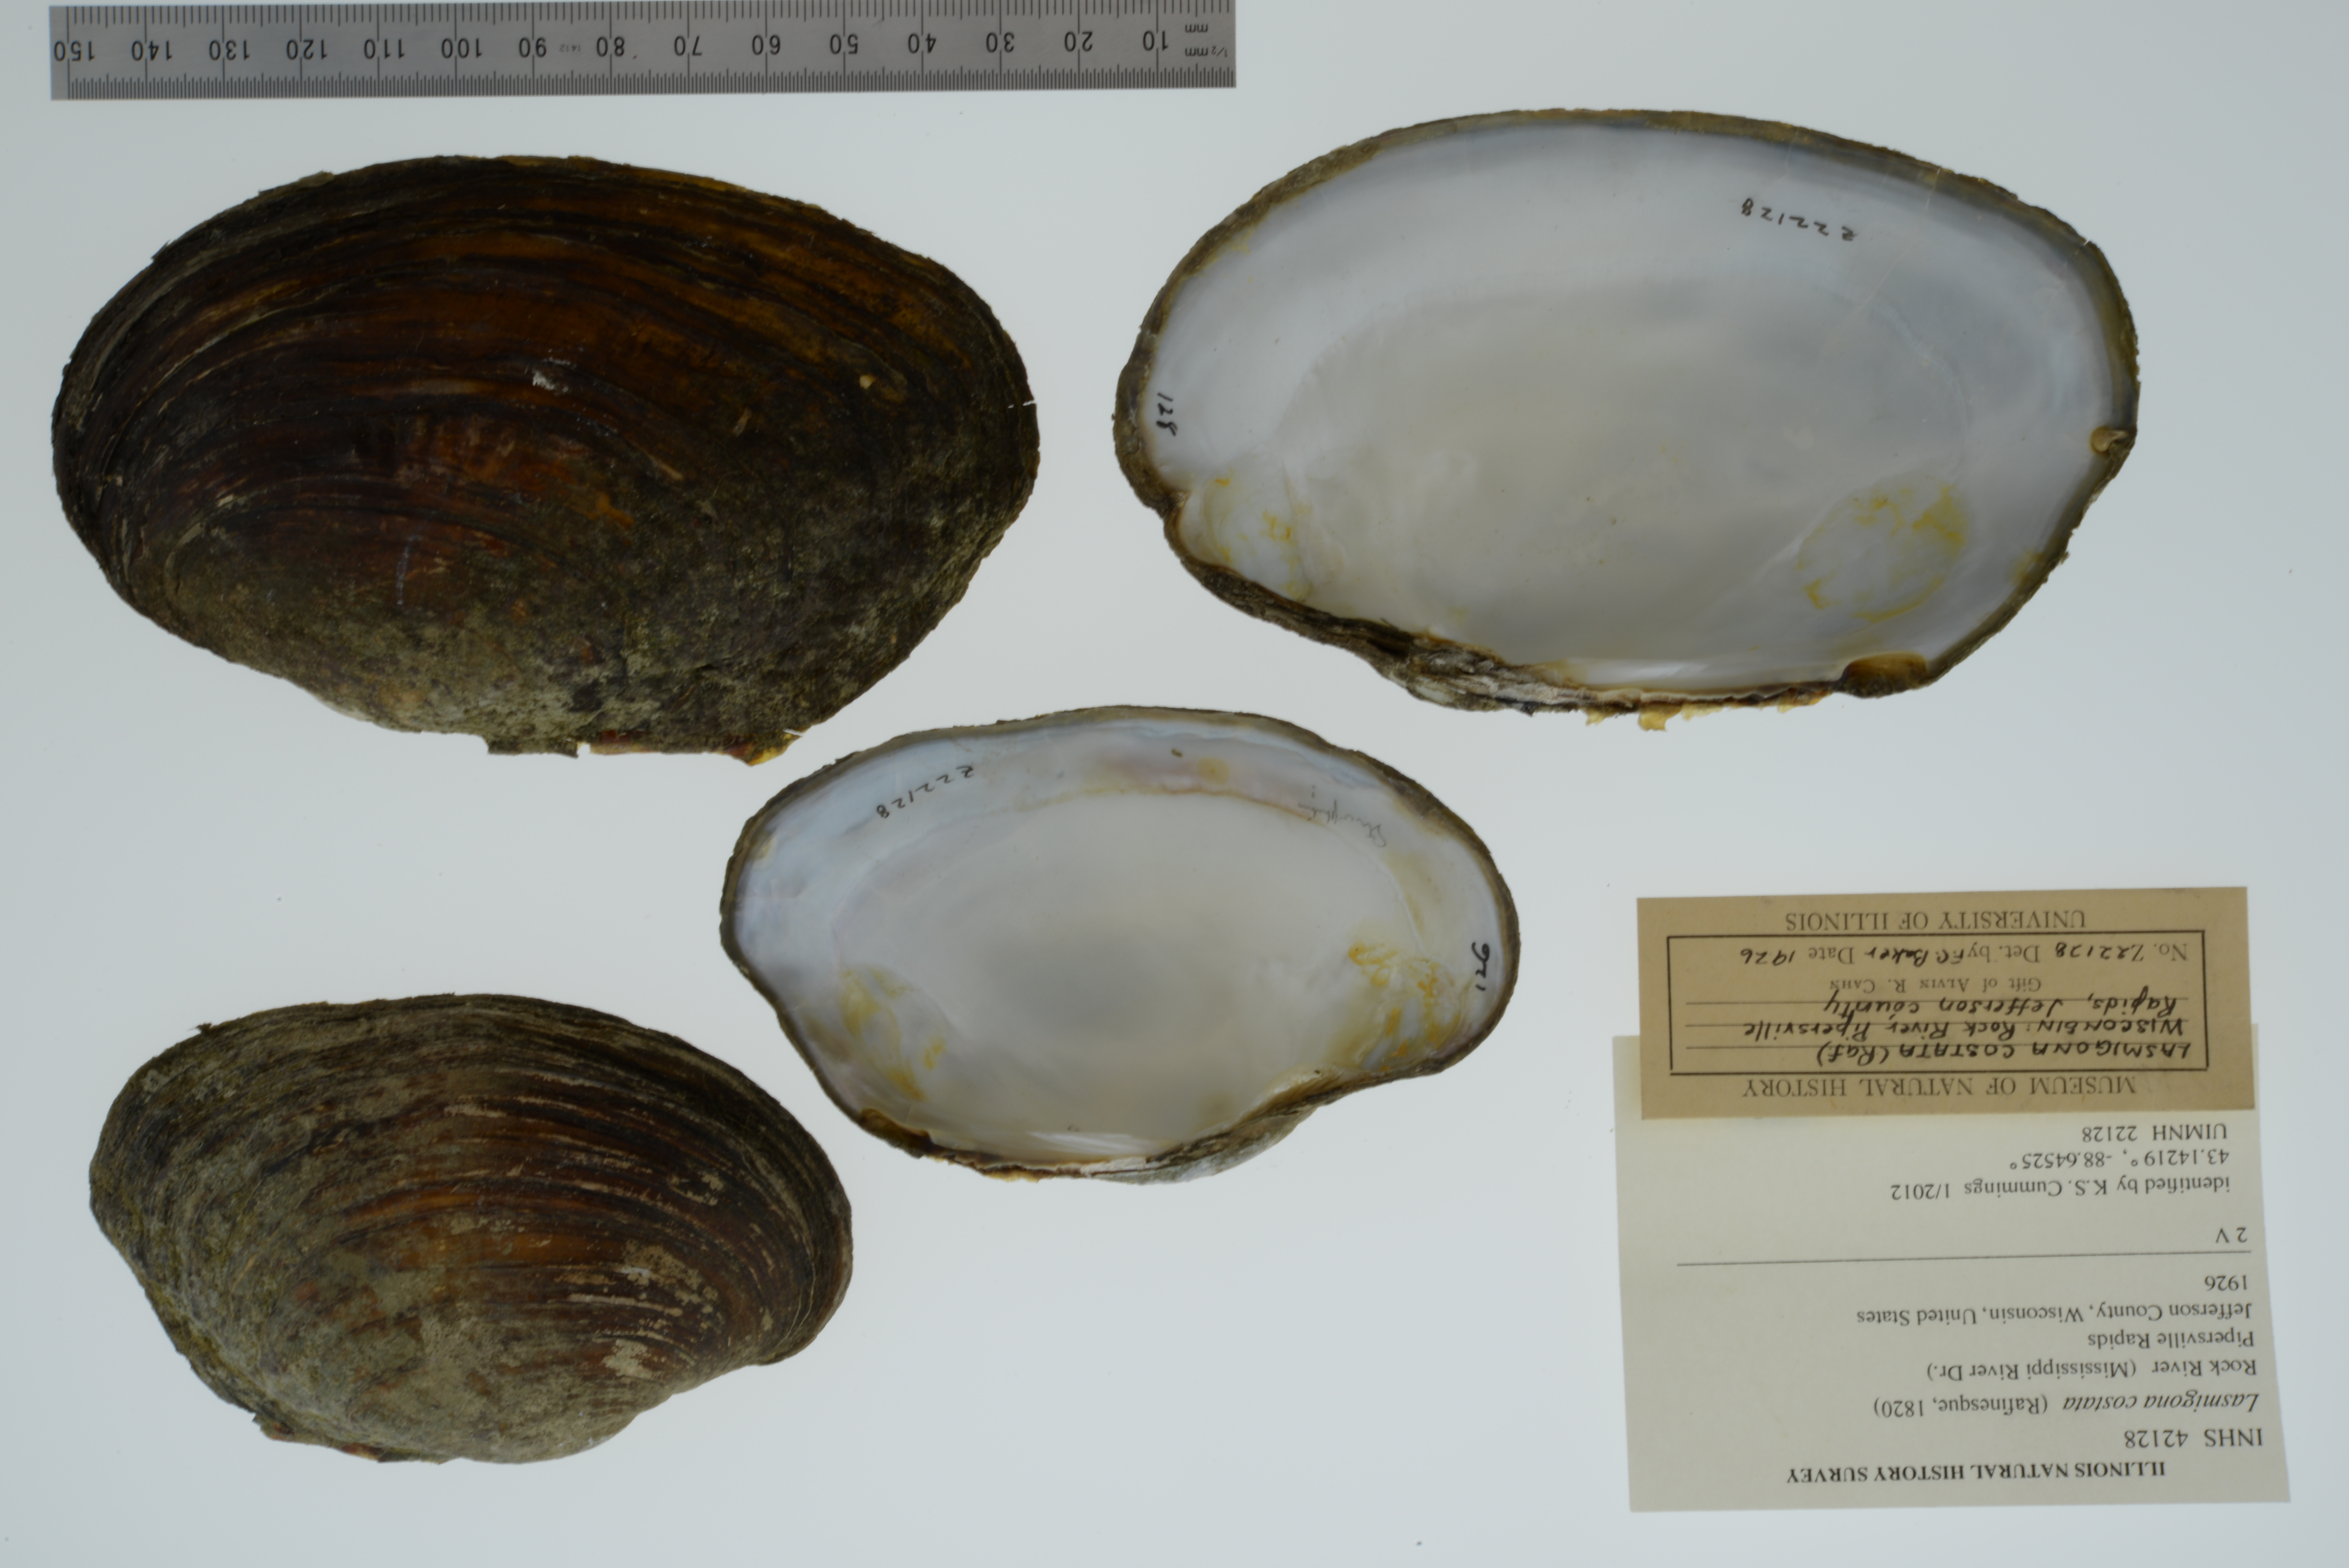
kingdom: Animalia
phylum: Mollusca
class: Bivalvia
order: Unionida
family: Unionidae
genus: Lasmigona
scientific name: Lasmigona costata
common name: Flutedshell
